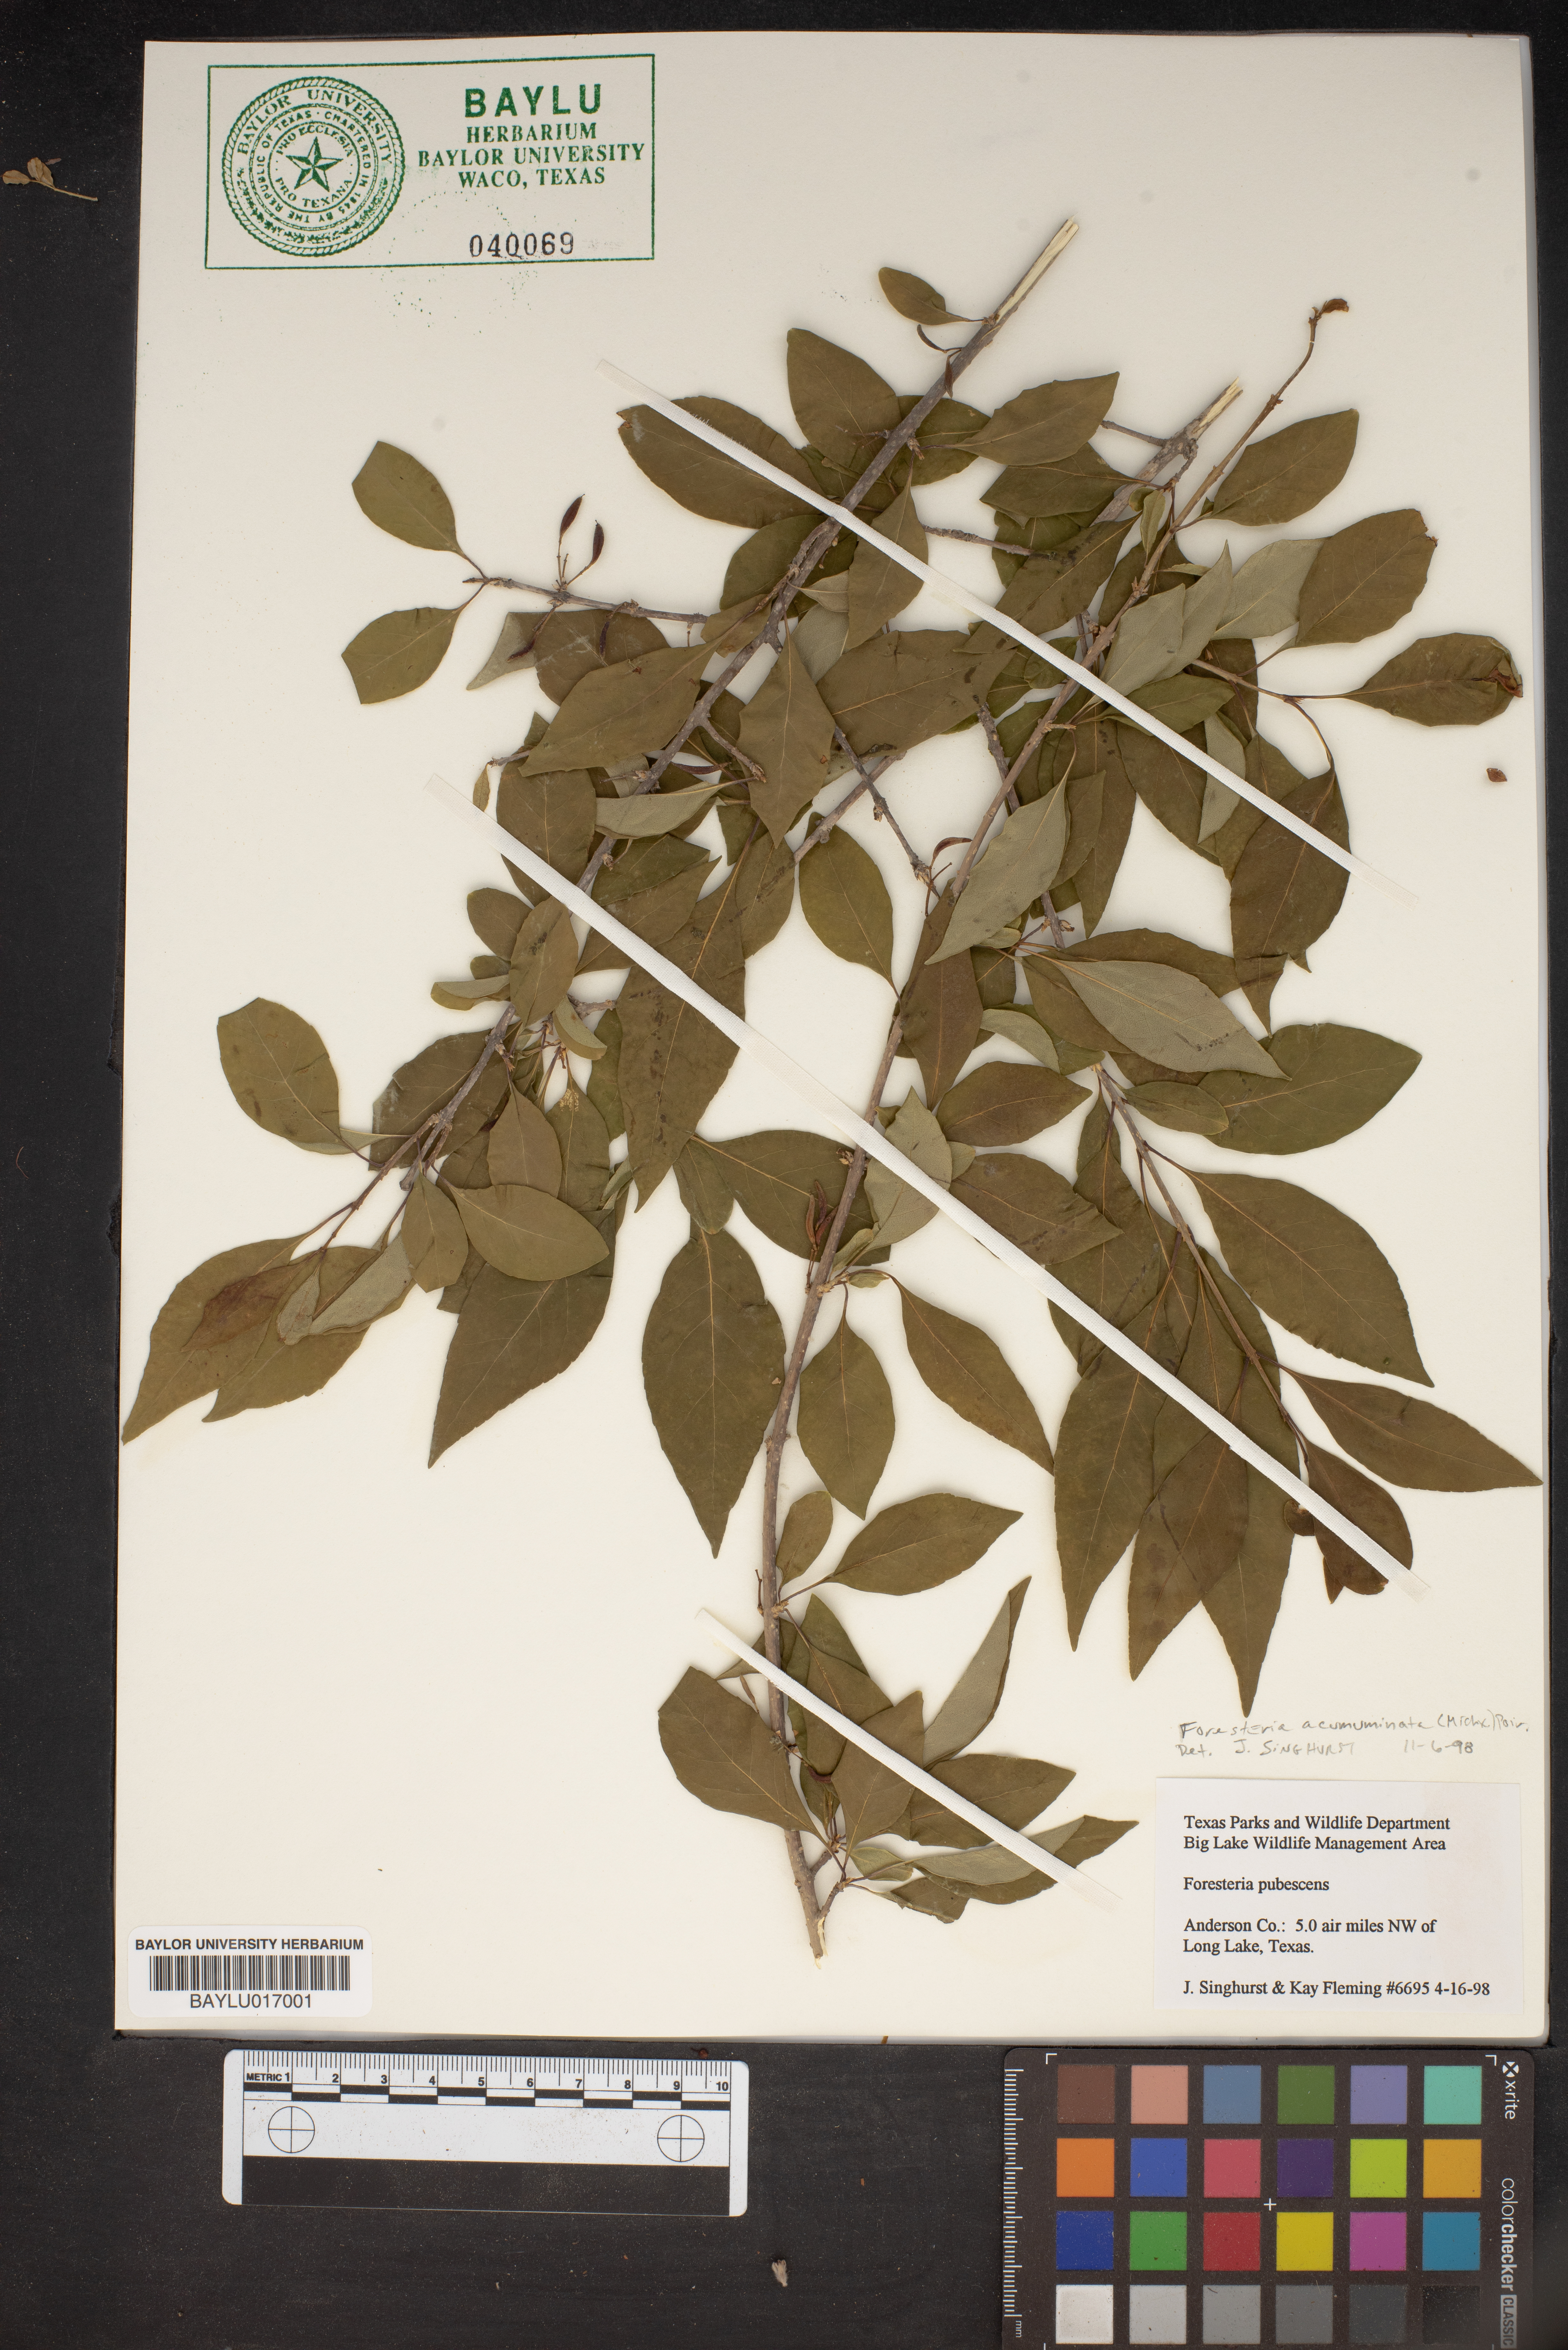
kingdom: Plantae
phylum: Tracheophyta
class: Magnoliopsida
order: Lamiales
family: Oleaceae
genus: Forestiera
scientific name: Forestiera pubescens
